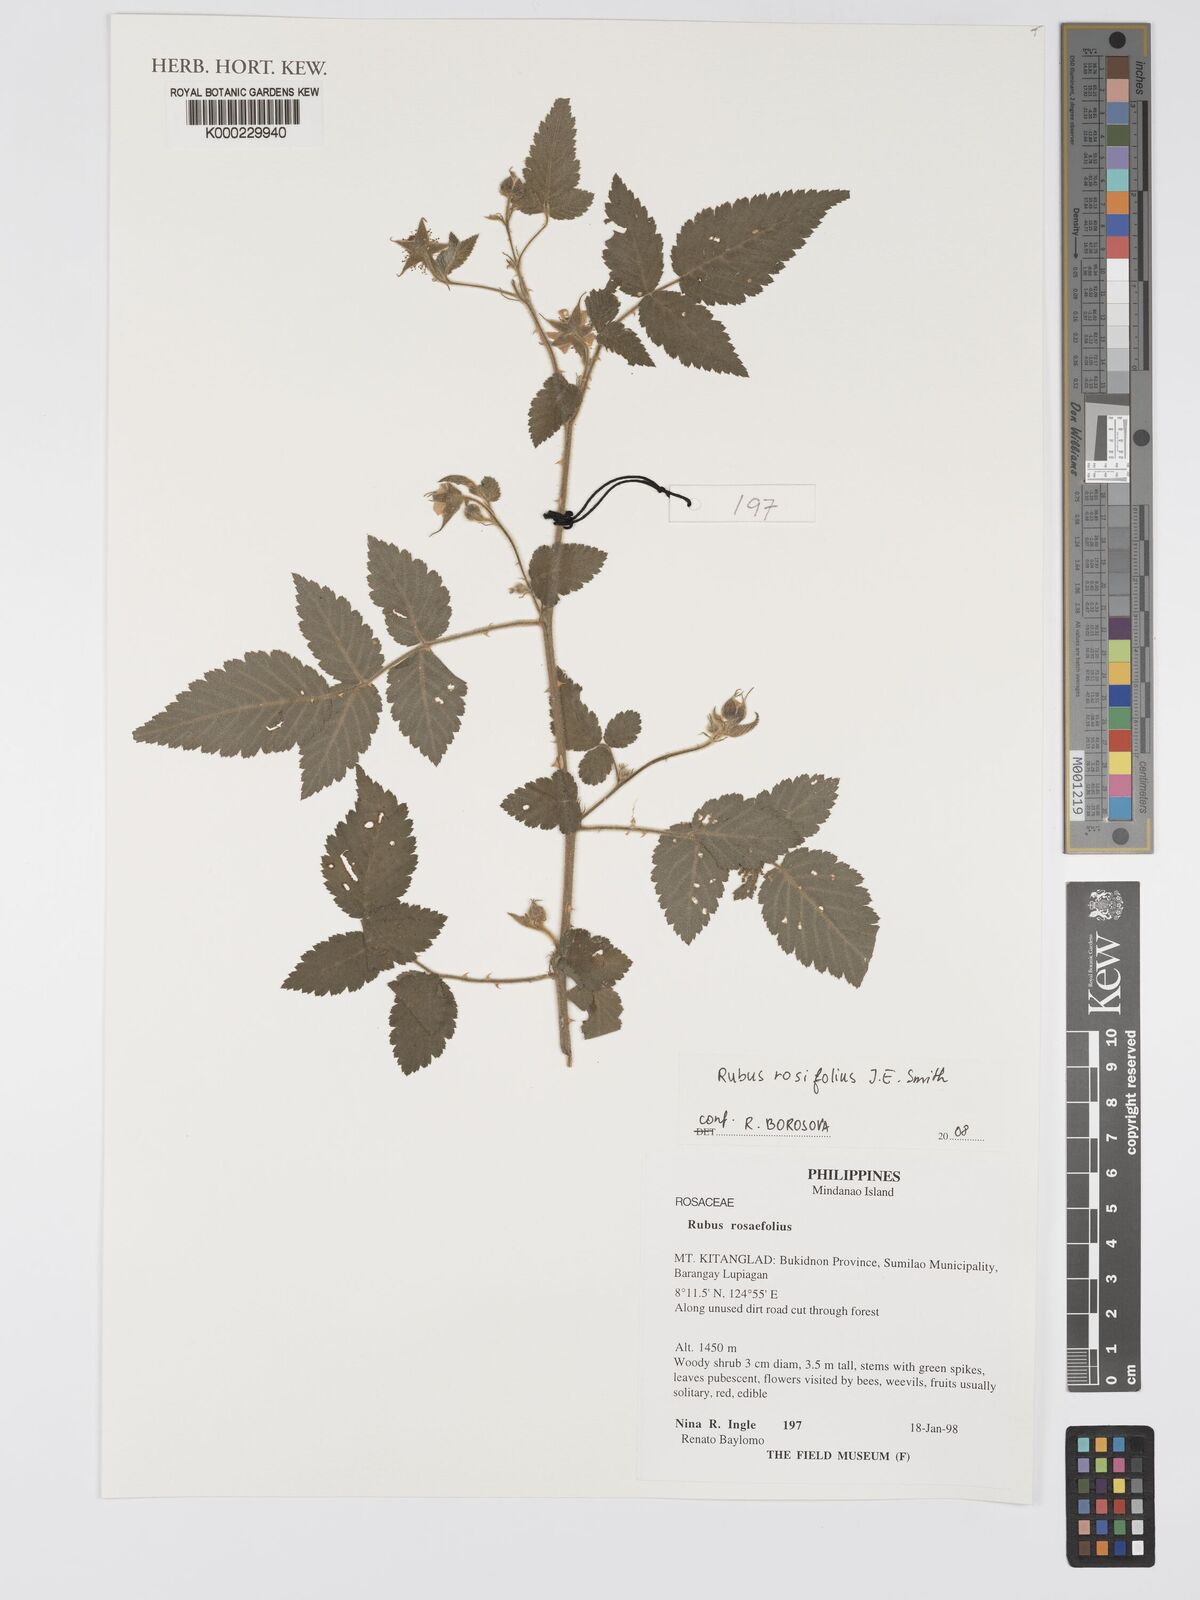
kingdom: Plantae
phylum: Tracheophyta
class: Magnoliopsida
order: Rosales
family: Rosaceae
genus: Rubus
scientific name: Rubus
